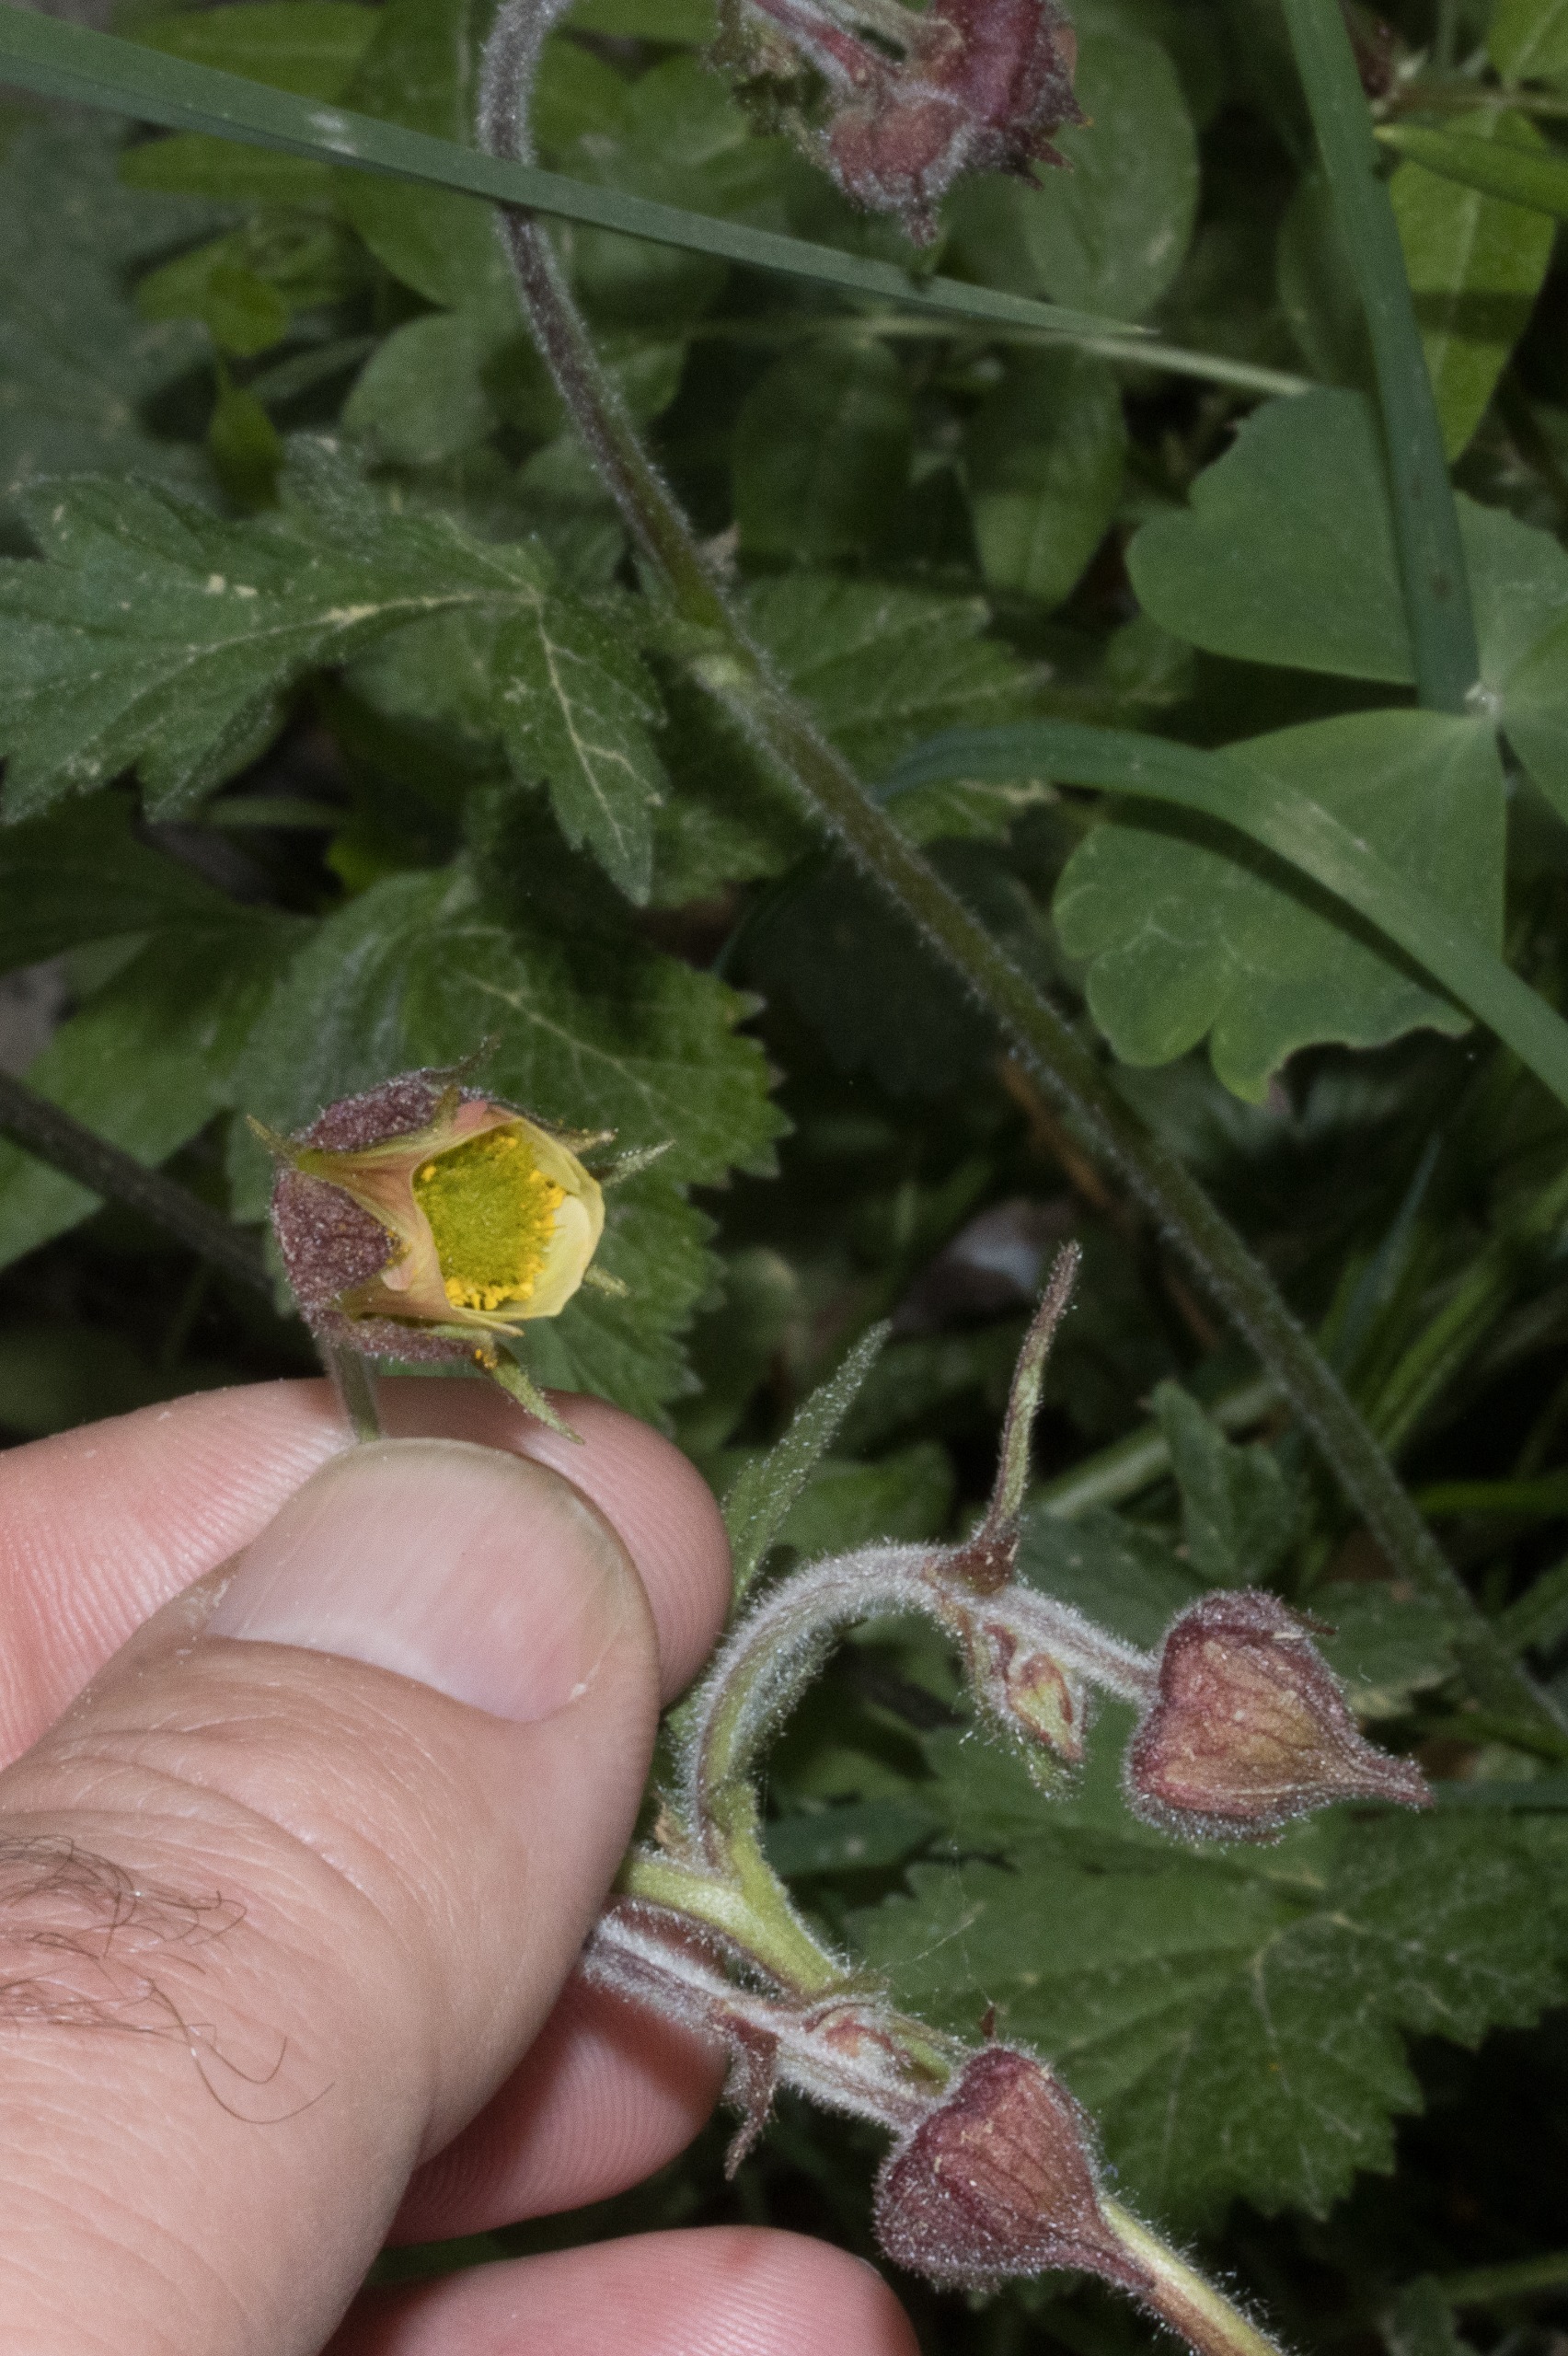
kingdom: Plantae
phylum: Tracheophyta
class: Magnoliopsida
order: Rosales
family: Rosaceae
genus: Geum
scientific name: Geum rivale
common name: Eng-nellikerod
